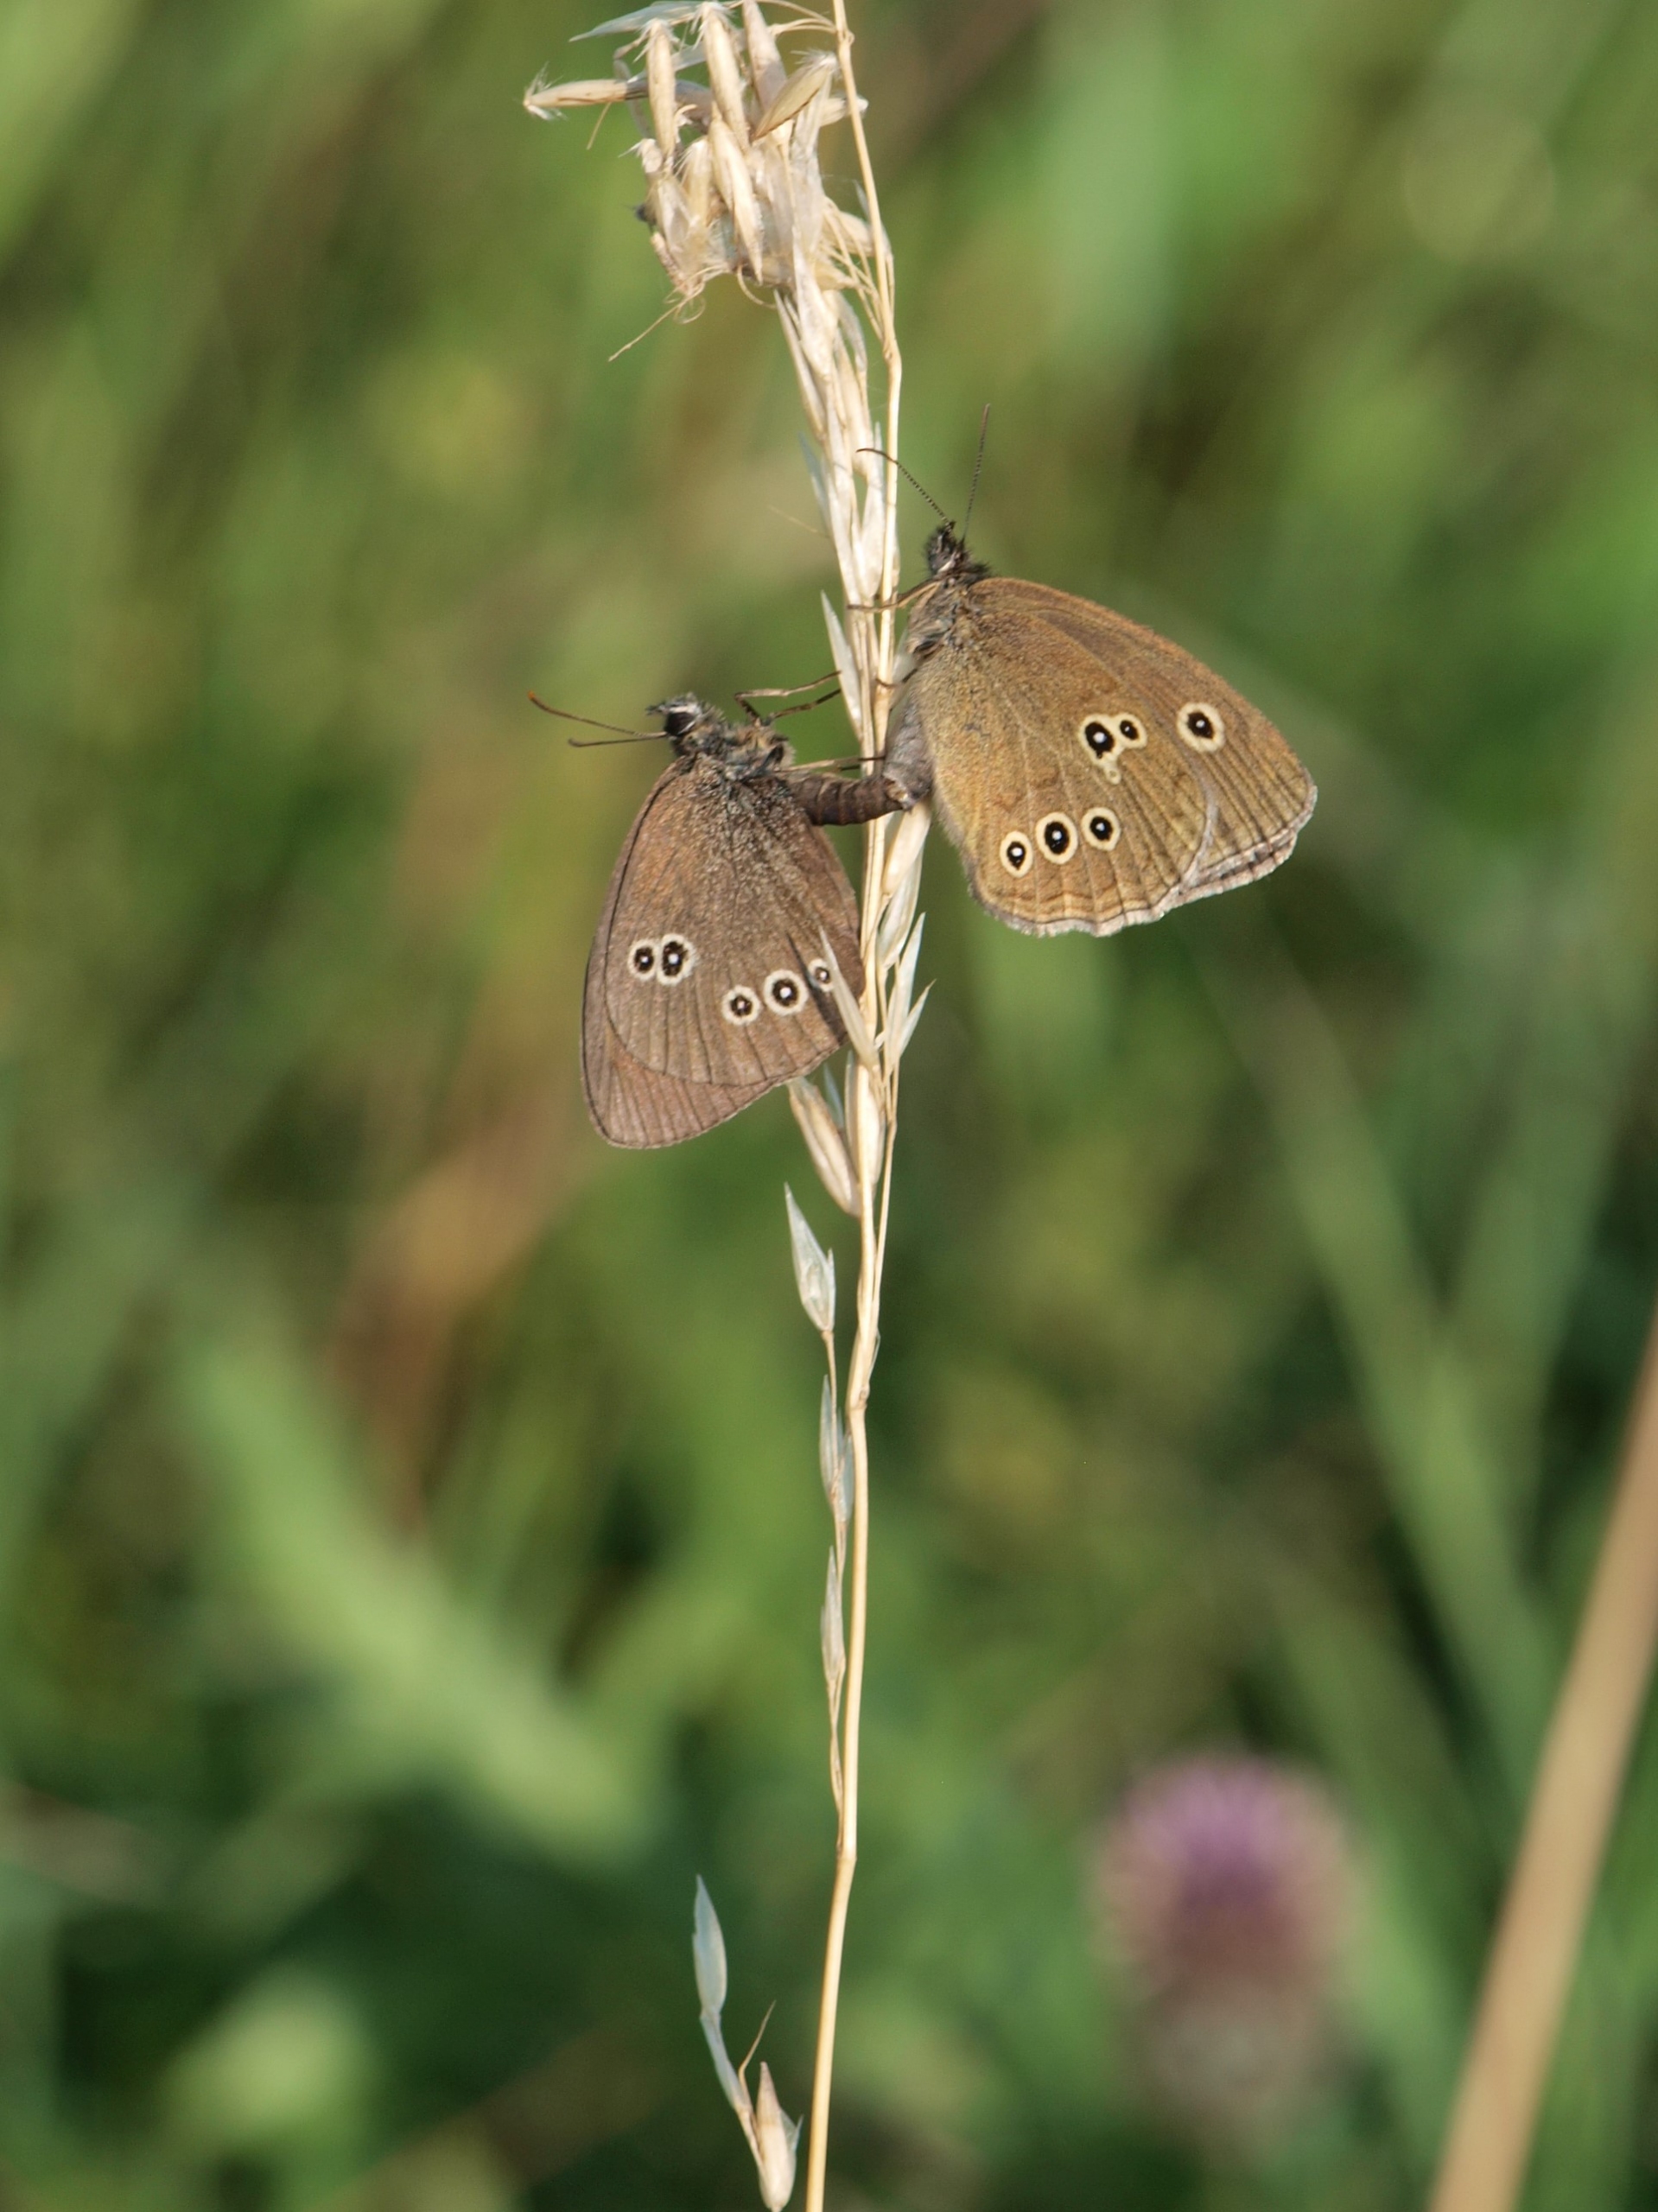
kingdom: Animalia
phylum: Arthropoda
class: Insecta
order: Lepidoptera
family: Nymphalidae
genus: Aphantopus
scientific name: Aphantopus hyperantus
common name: Engrandøje
